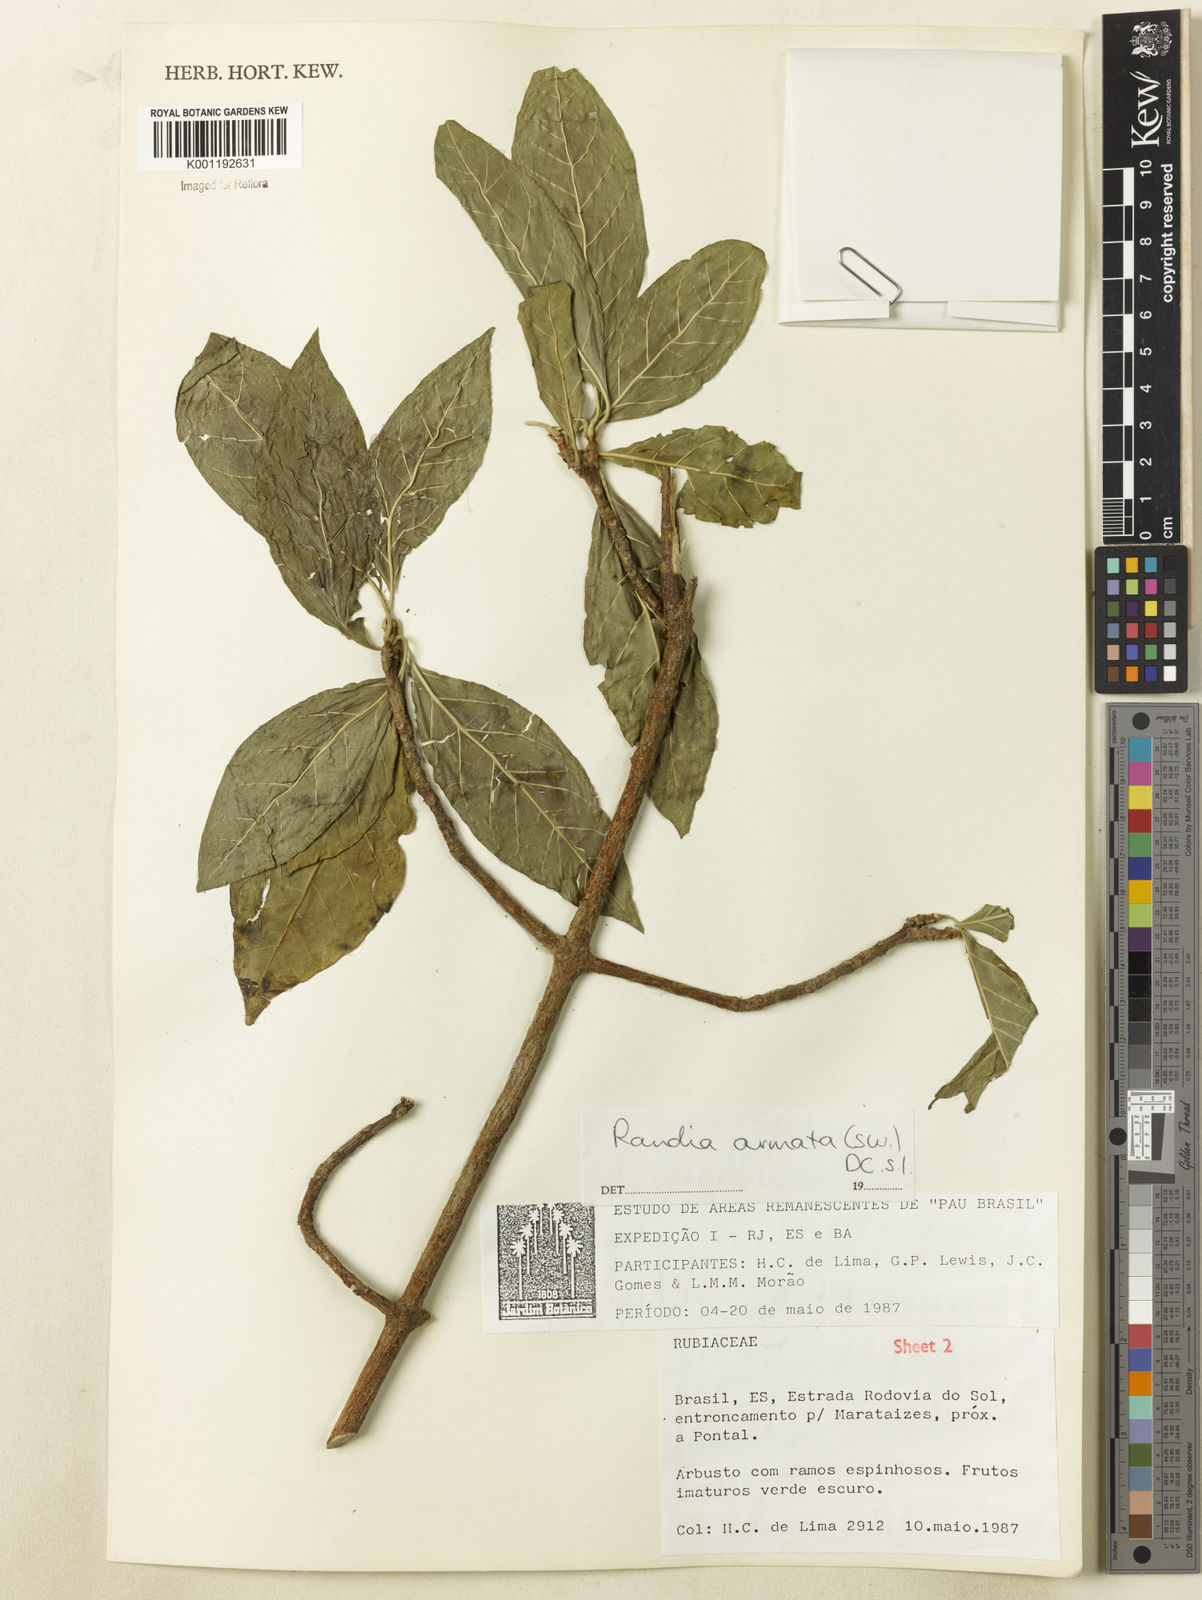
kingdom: Plantae
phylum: Tracheophyta
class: Magnoliopsida
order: Gentianales
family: Rubiaceae
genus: Randia
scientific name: Randia armata
